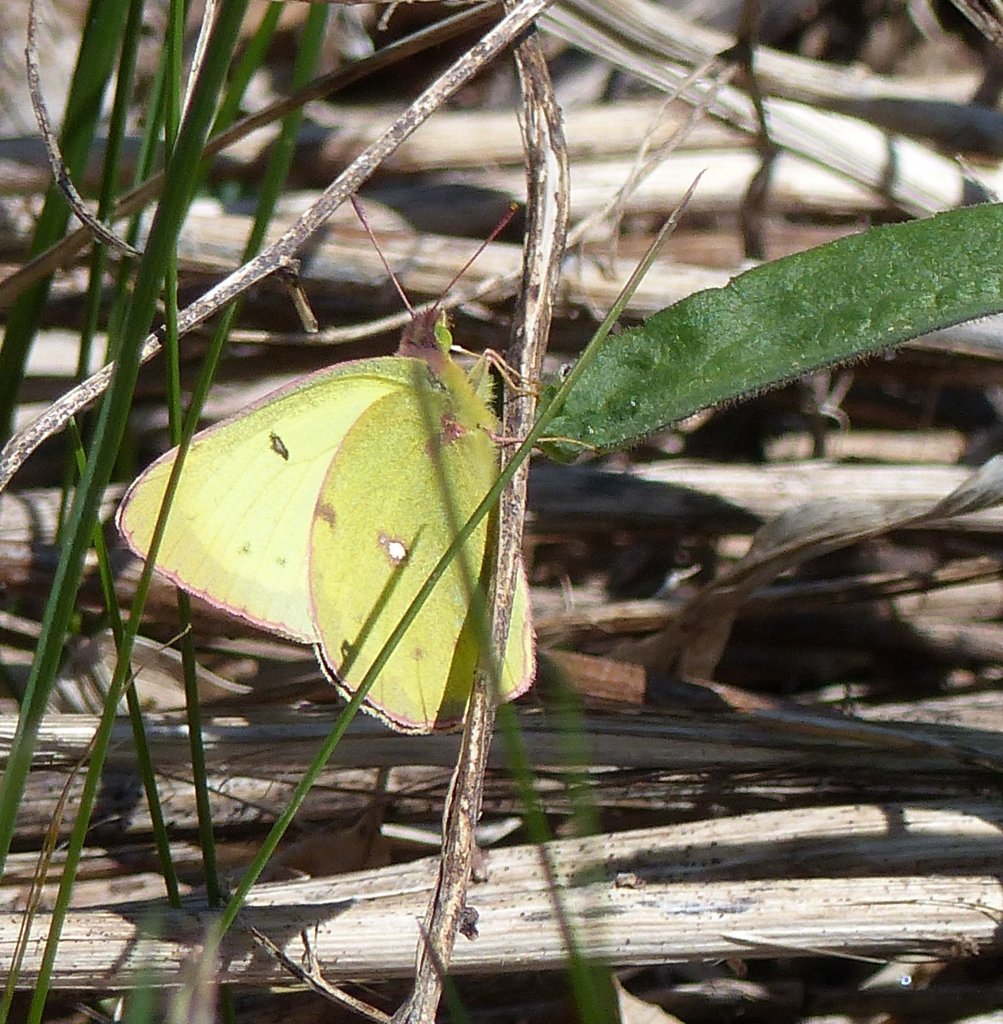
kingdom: Animalia
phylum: Arthropoda
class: Insecta
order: Lepidoptera
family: Pieridae
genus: Colias
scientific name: Colias philodice
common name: Clouded Sulphur
